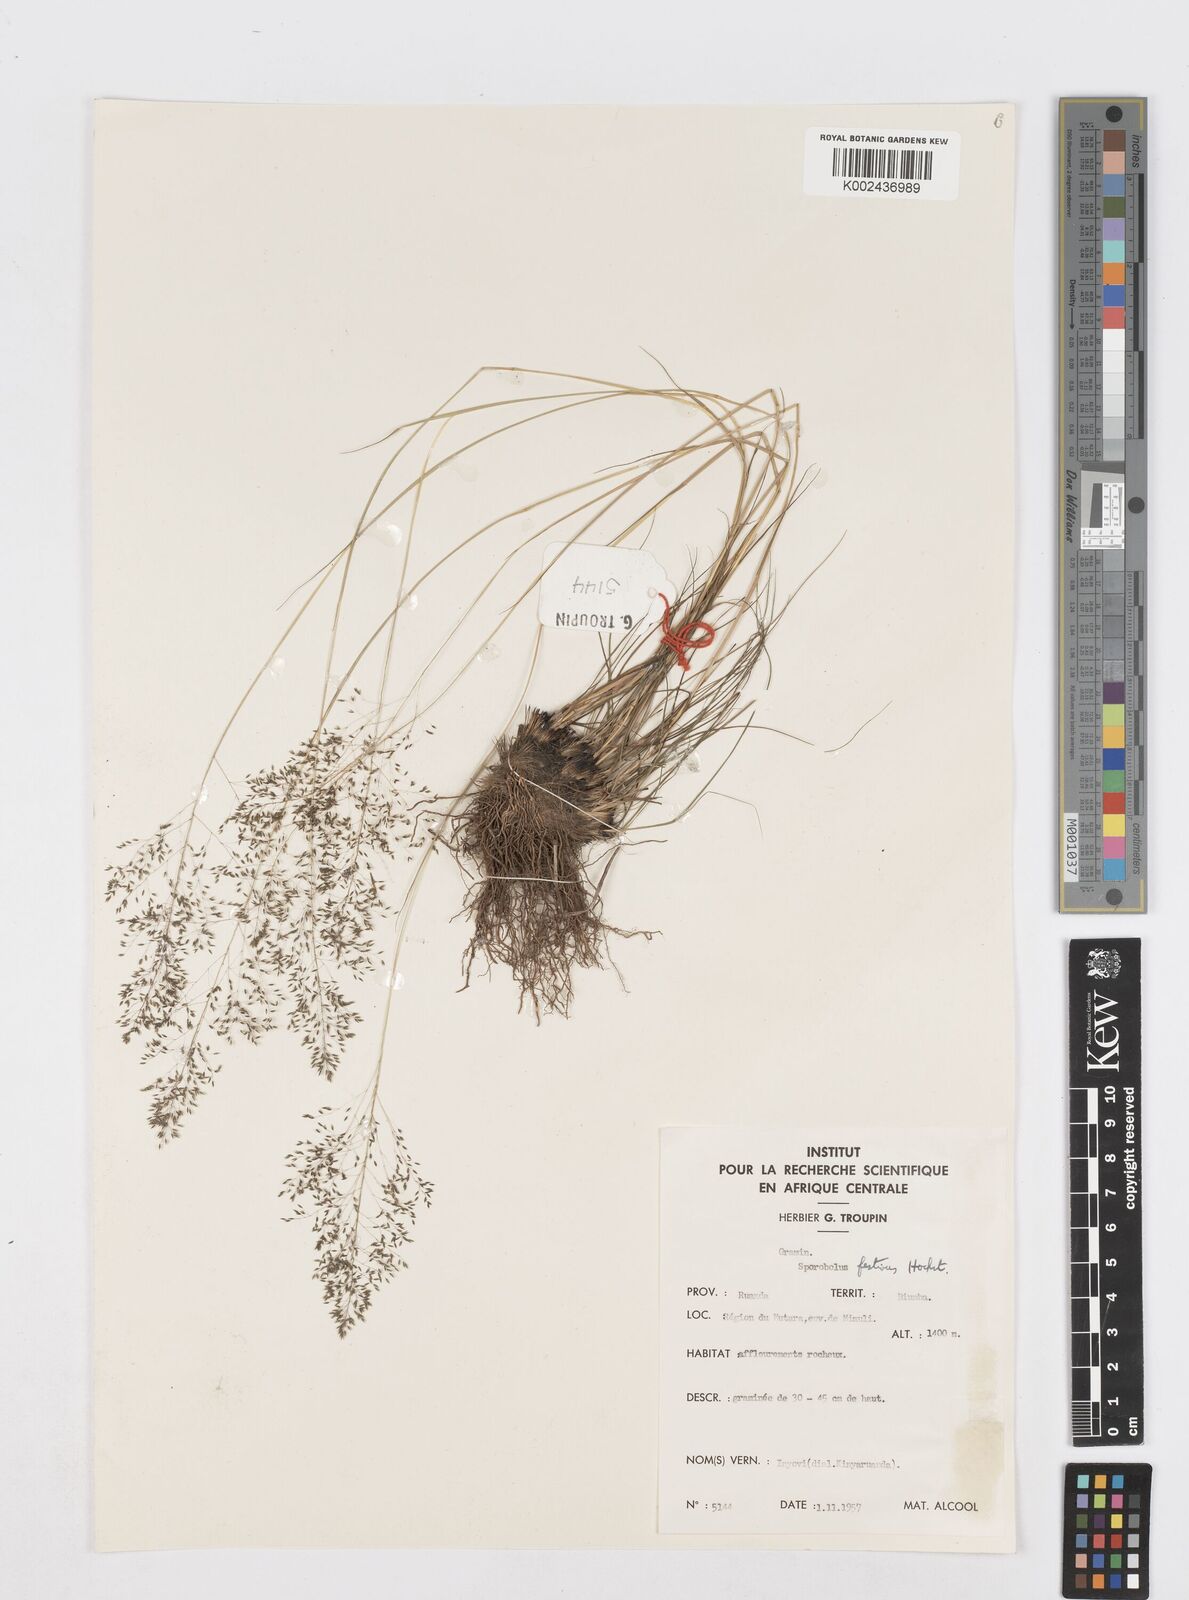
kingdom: Plantae
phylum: Tracheophyta
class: Liliopsida
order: Poales
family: Poaceae
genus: Sporobolus
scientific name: Sporobolus stapfianus
